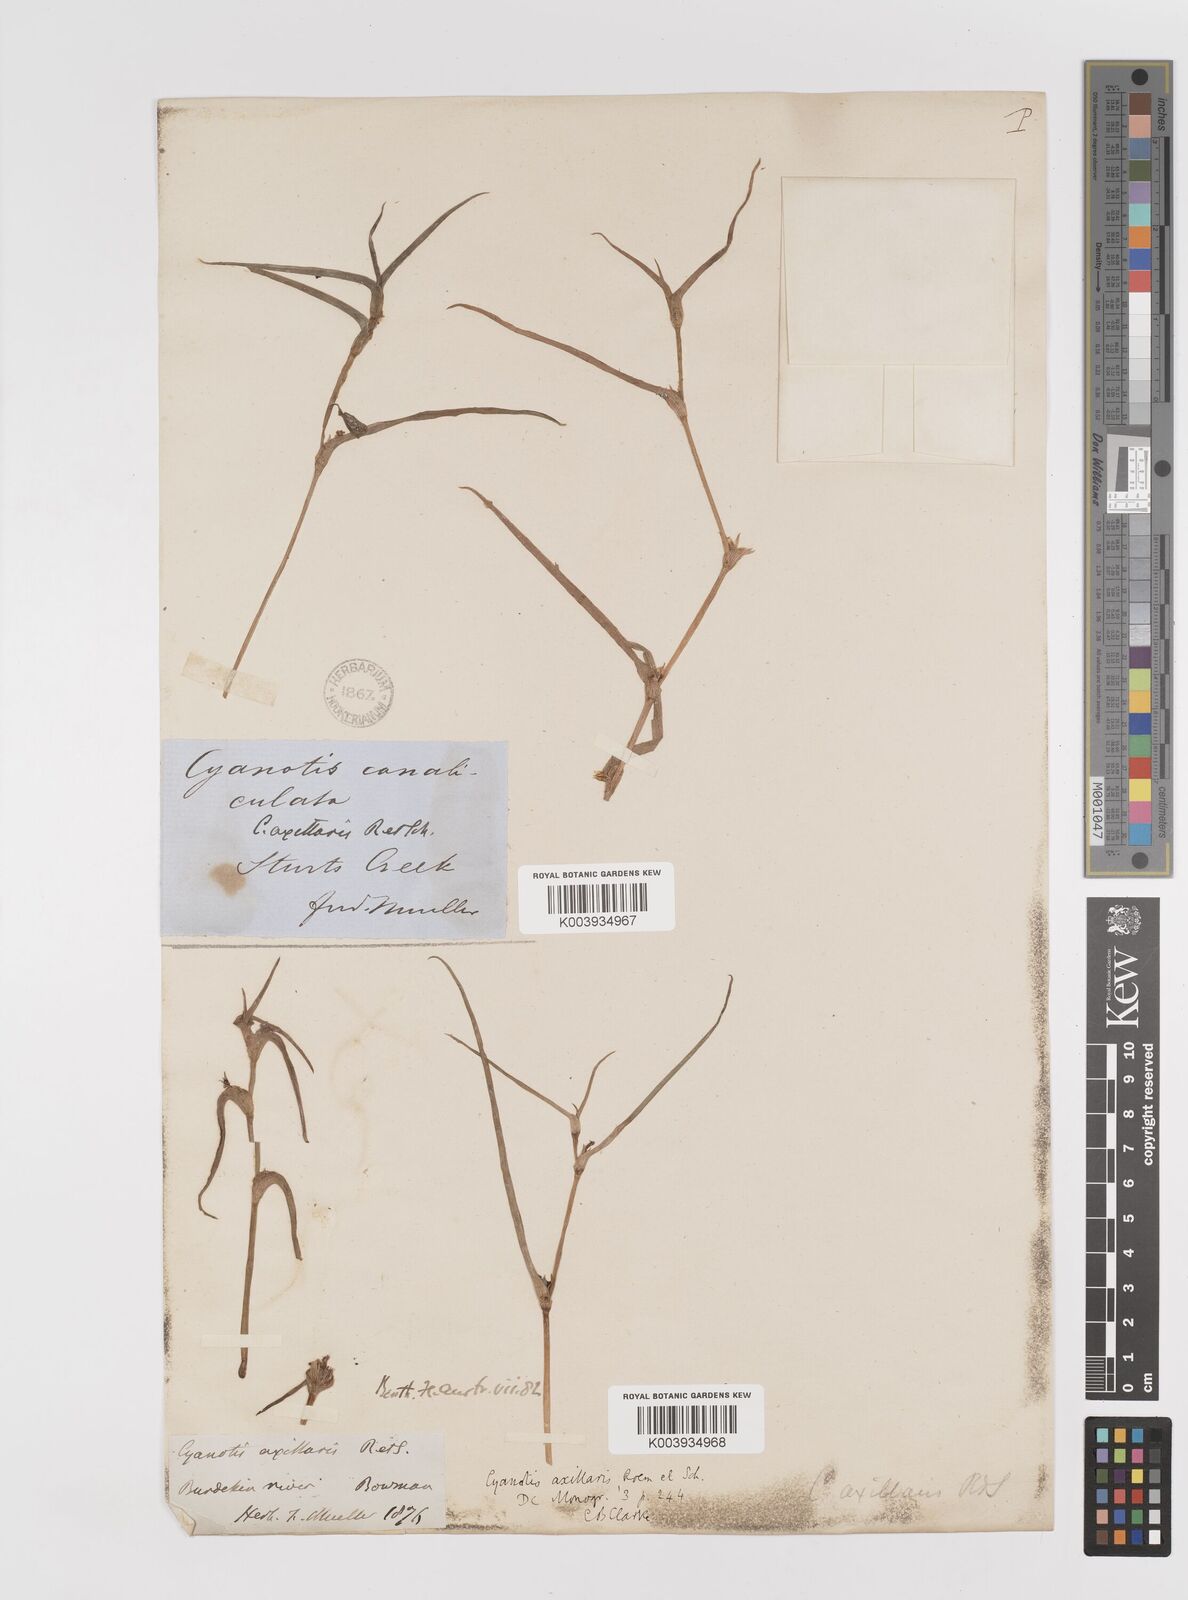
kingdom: Plantae
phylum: Tracheophyta
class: Liliopsida
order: Commelinales
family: Commelinaceae
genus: Cyanotis
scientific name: Cyanotis axillaris
